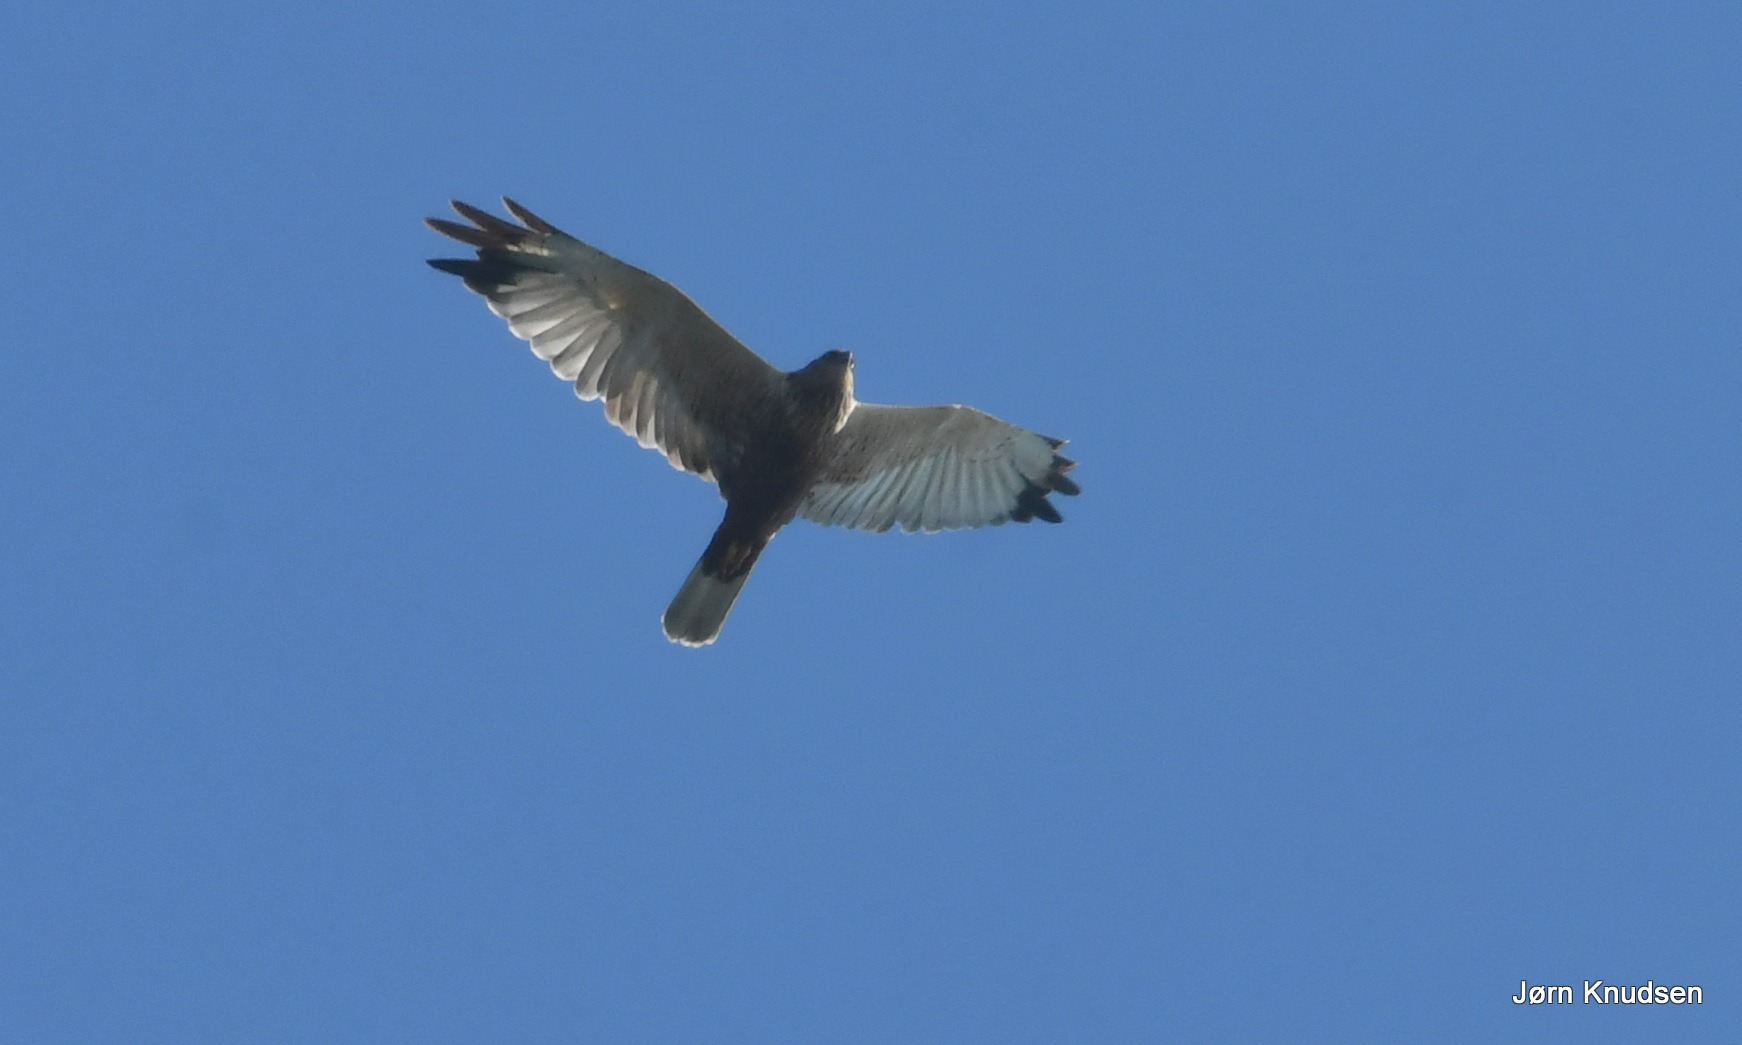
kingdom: Animalia
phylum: Chordata
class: Aves
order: Accipitriformes
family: Accipitridae
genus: Circus
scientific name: Circus aeruginosus
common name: Rørhøg
